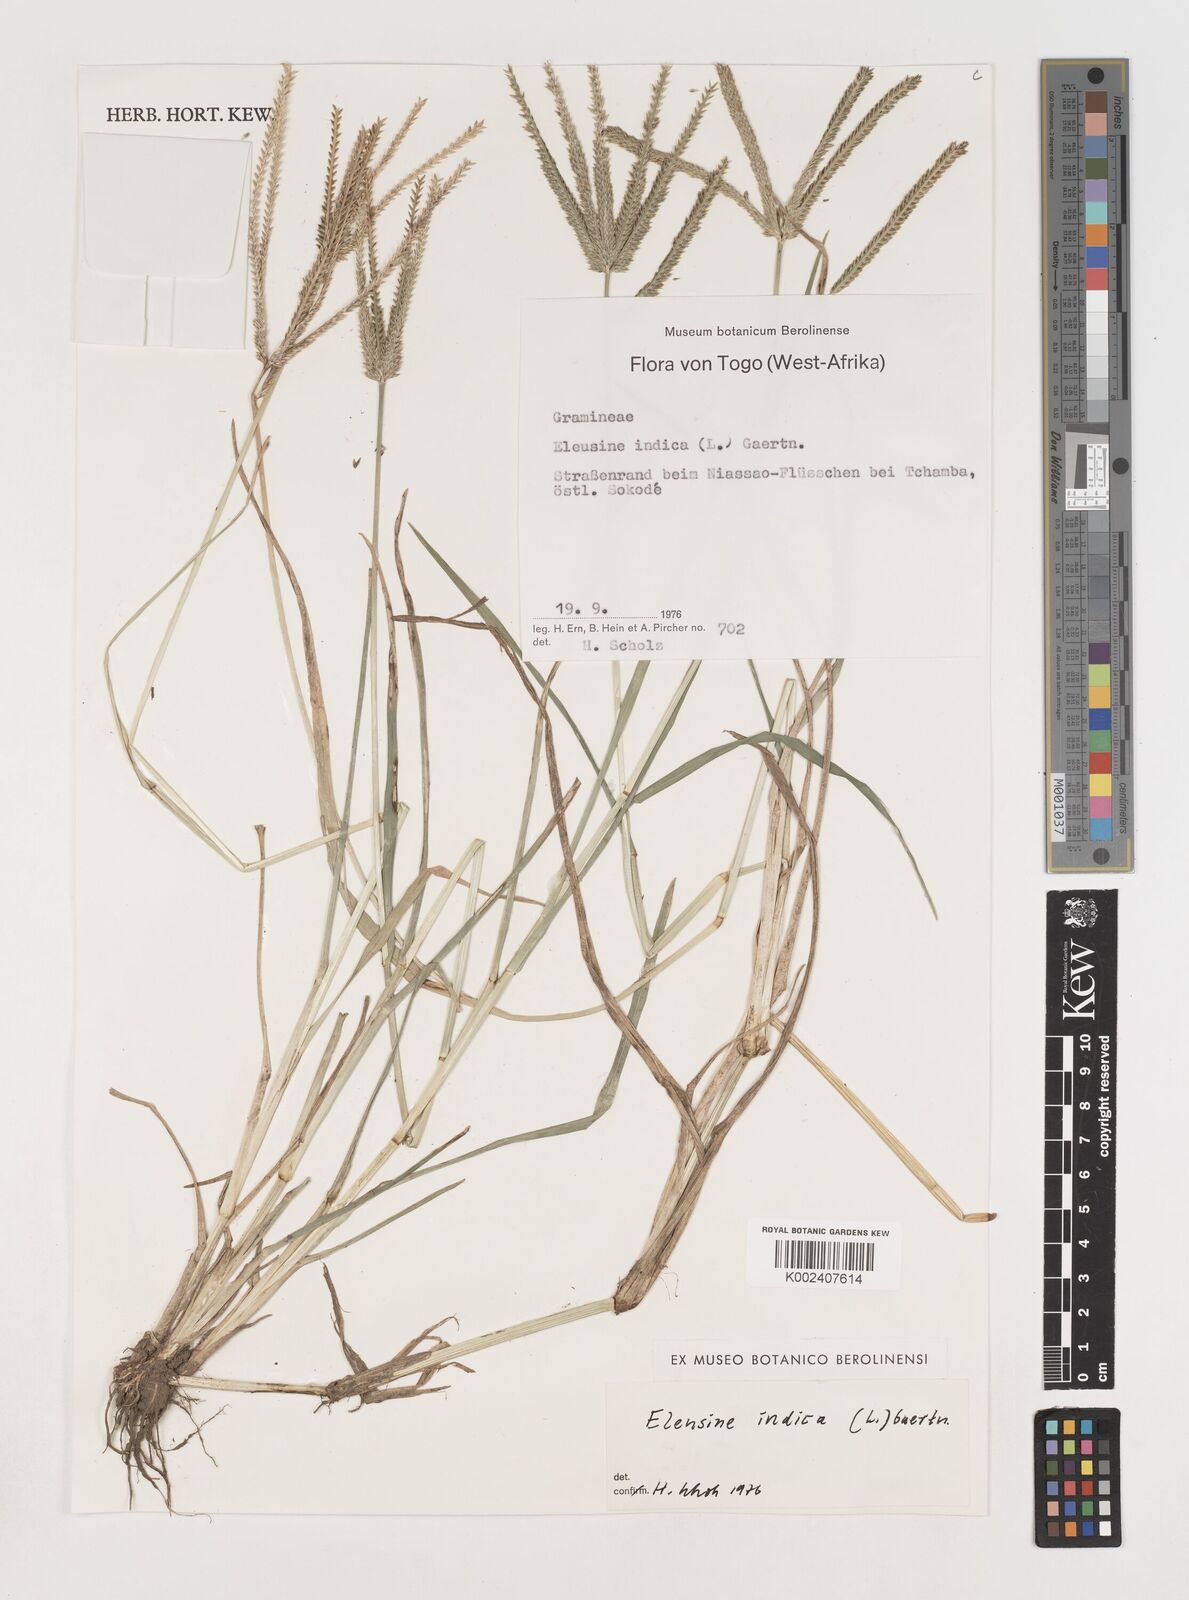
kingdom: Plantae
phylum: Tracheophyta
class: Liliopsida
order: Poales
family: Poaceae
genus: Eleusine
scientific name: Eleusine indica
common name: Yard-grass
